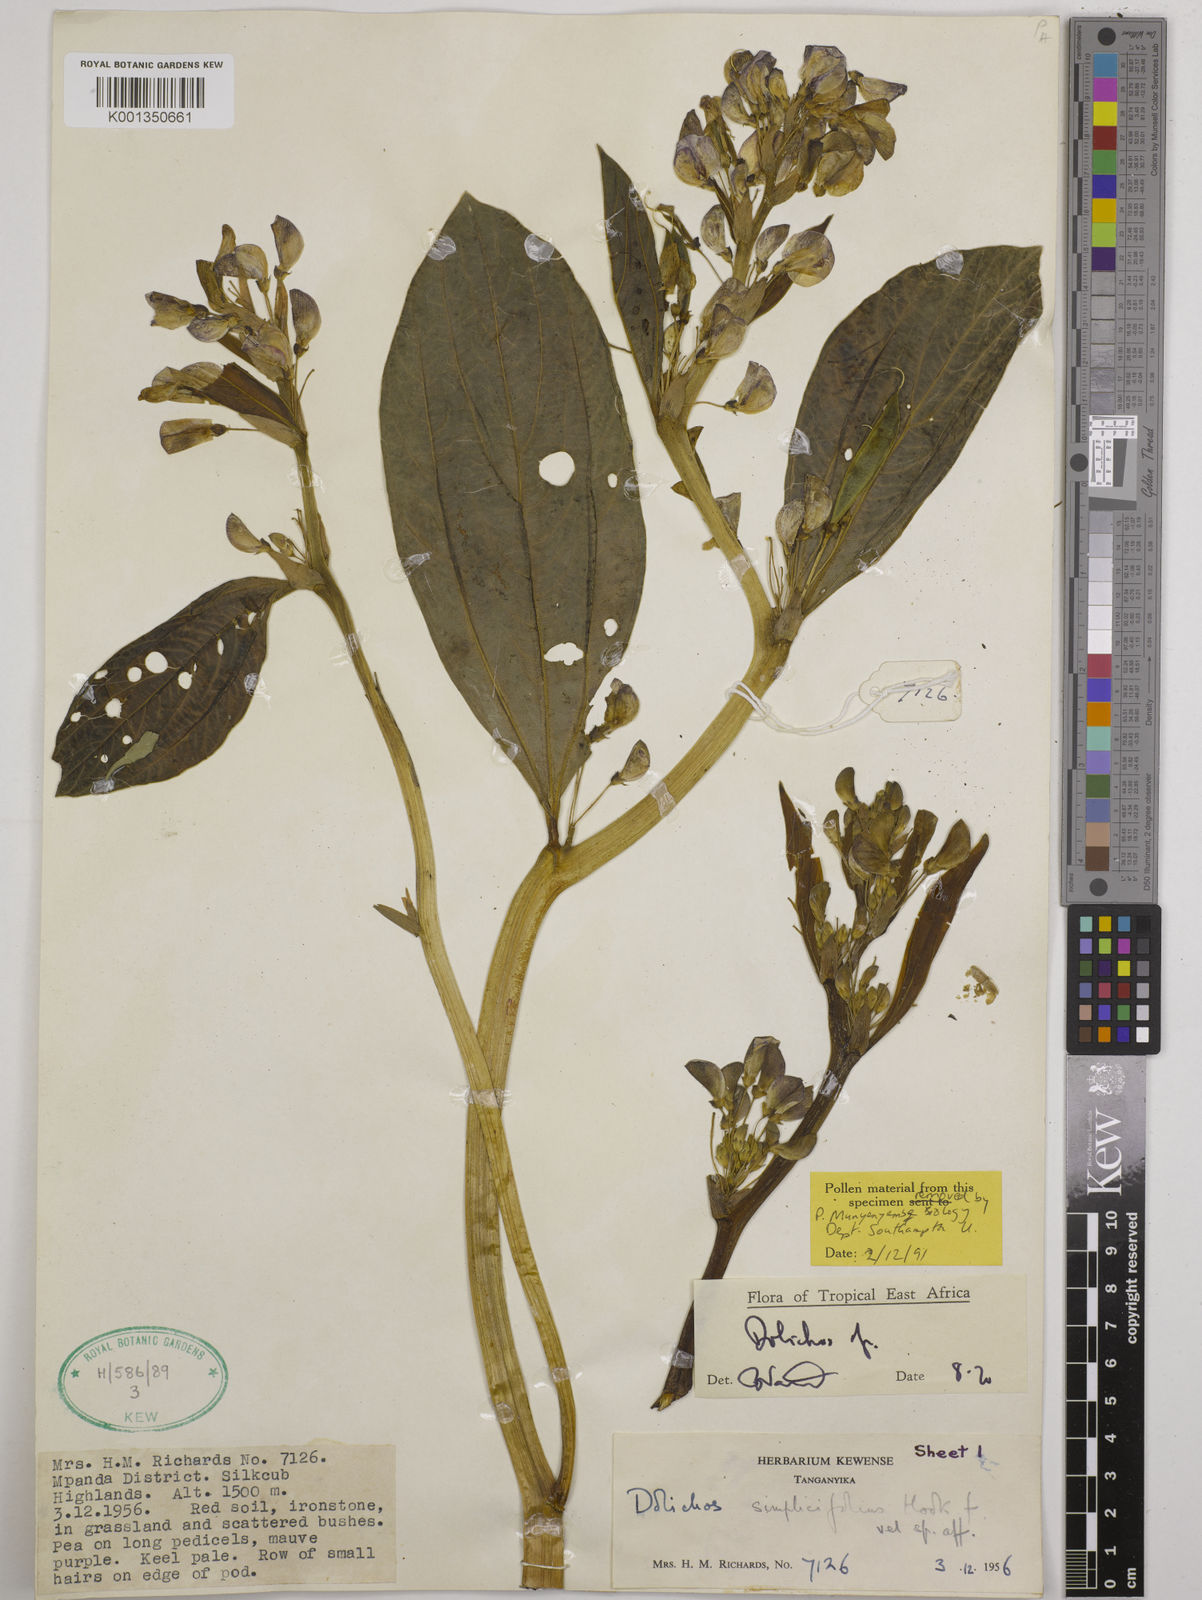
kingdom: Plantae
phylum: Tracheophyta
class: Magnoliopsida
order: Fabales
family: Fabaceae
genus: Dolichos
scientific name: Dolichos simplicifolius
